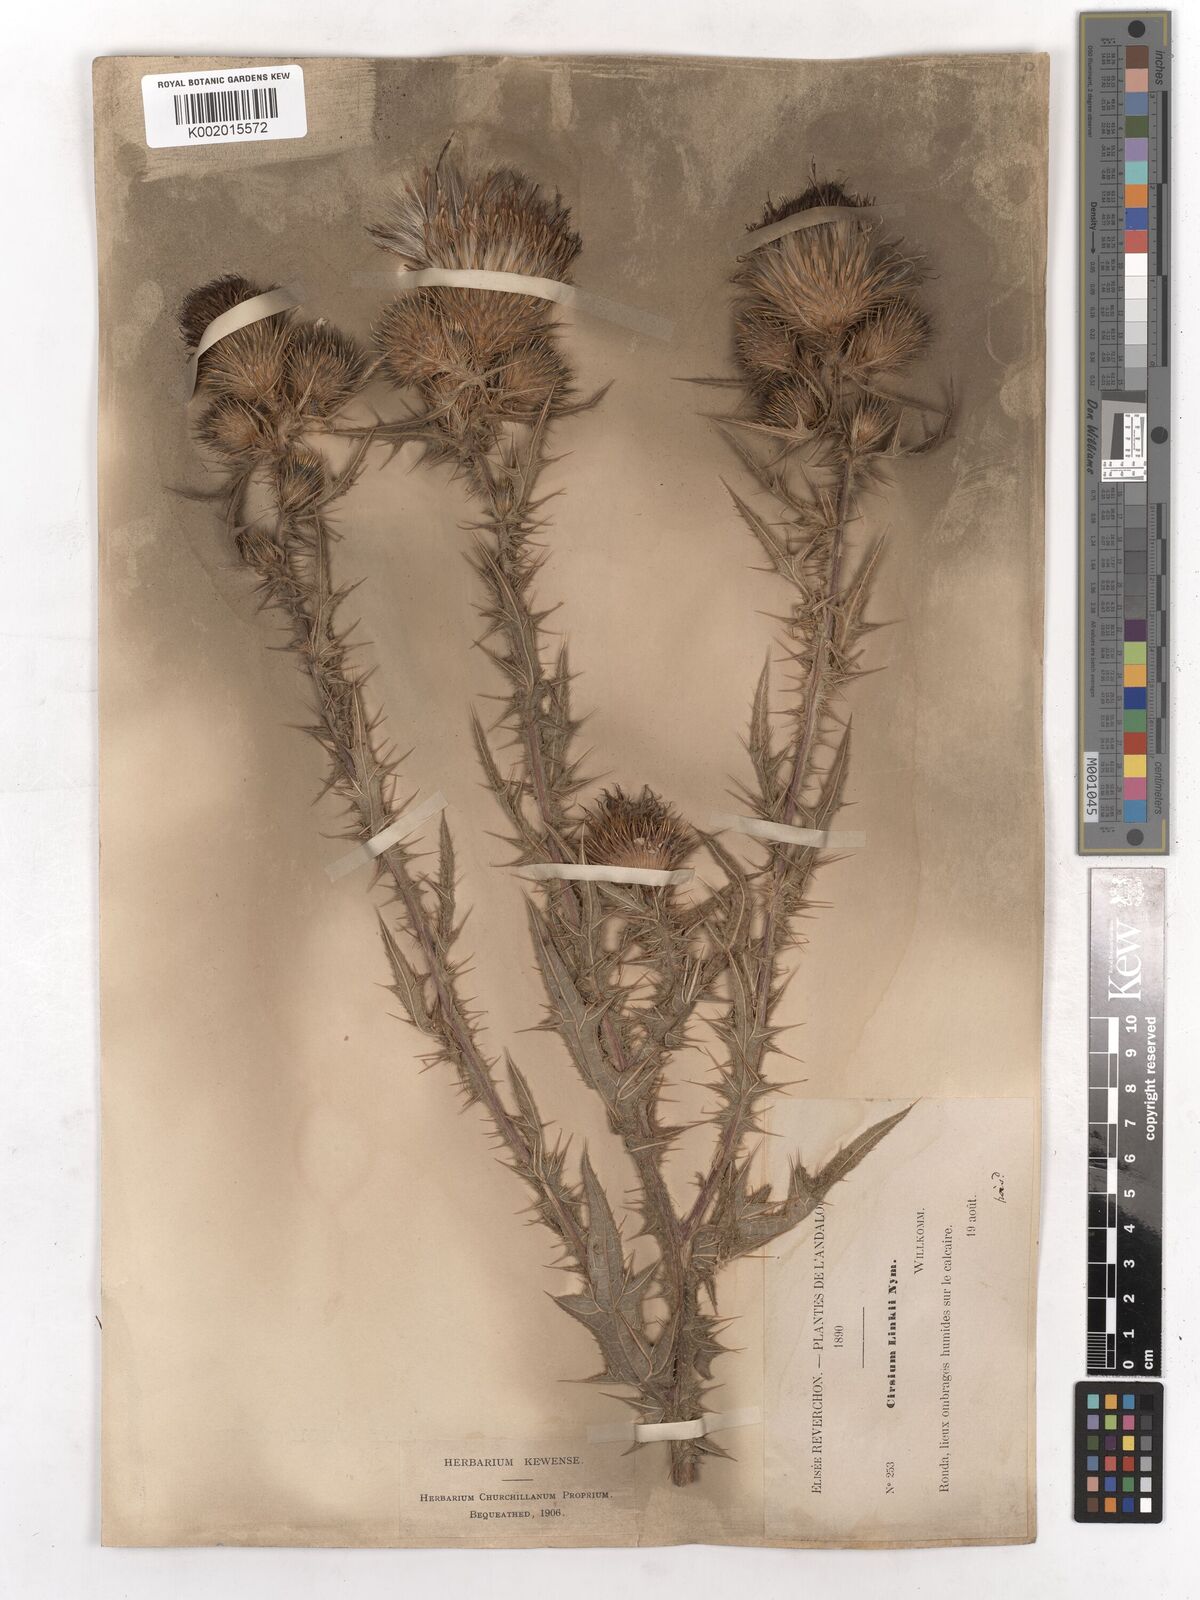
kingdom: Plantae
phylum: Tracheophyta
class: Magnoliopsida
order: Asterales
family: Asteraceae
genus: Cirsium
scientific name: Cirsium vulgare
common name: Bull thistle
